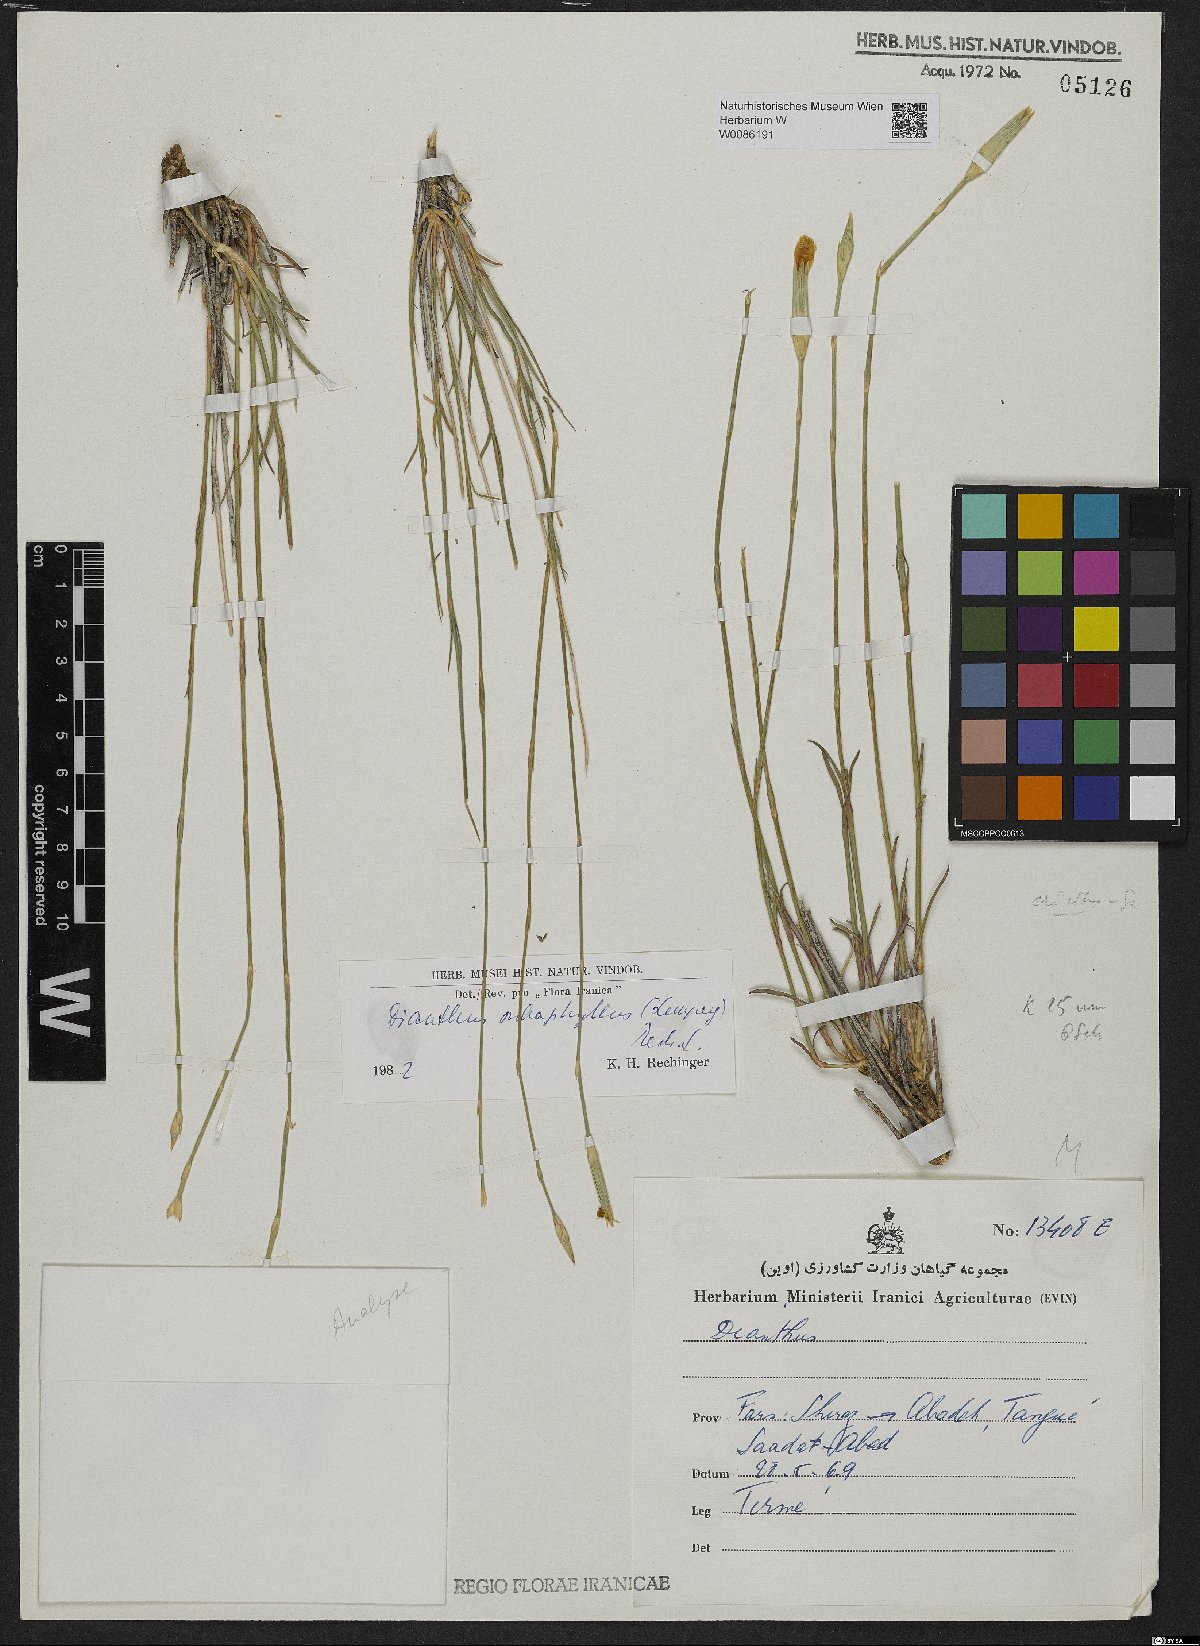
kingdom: Plantae
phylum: Tracheophyta
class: Magnoliopsida
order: Caryophyllales
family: Caryophyllaceae
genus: Dianthus
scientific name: Dianthus subaphyllus
